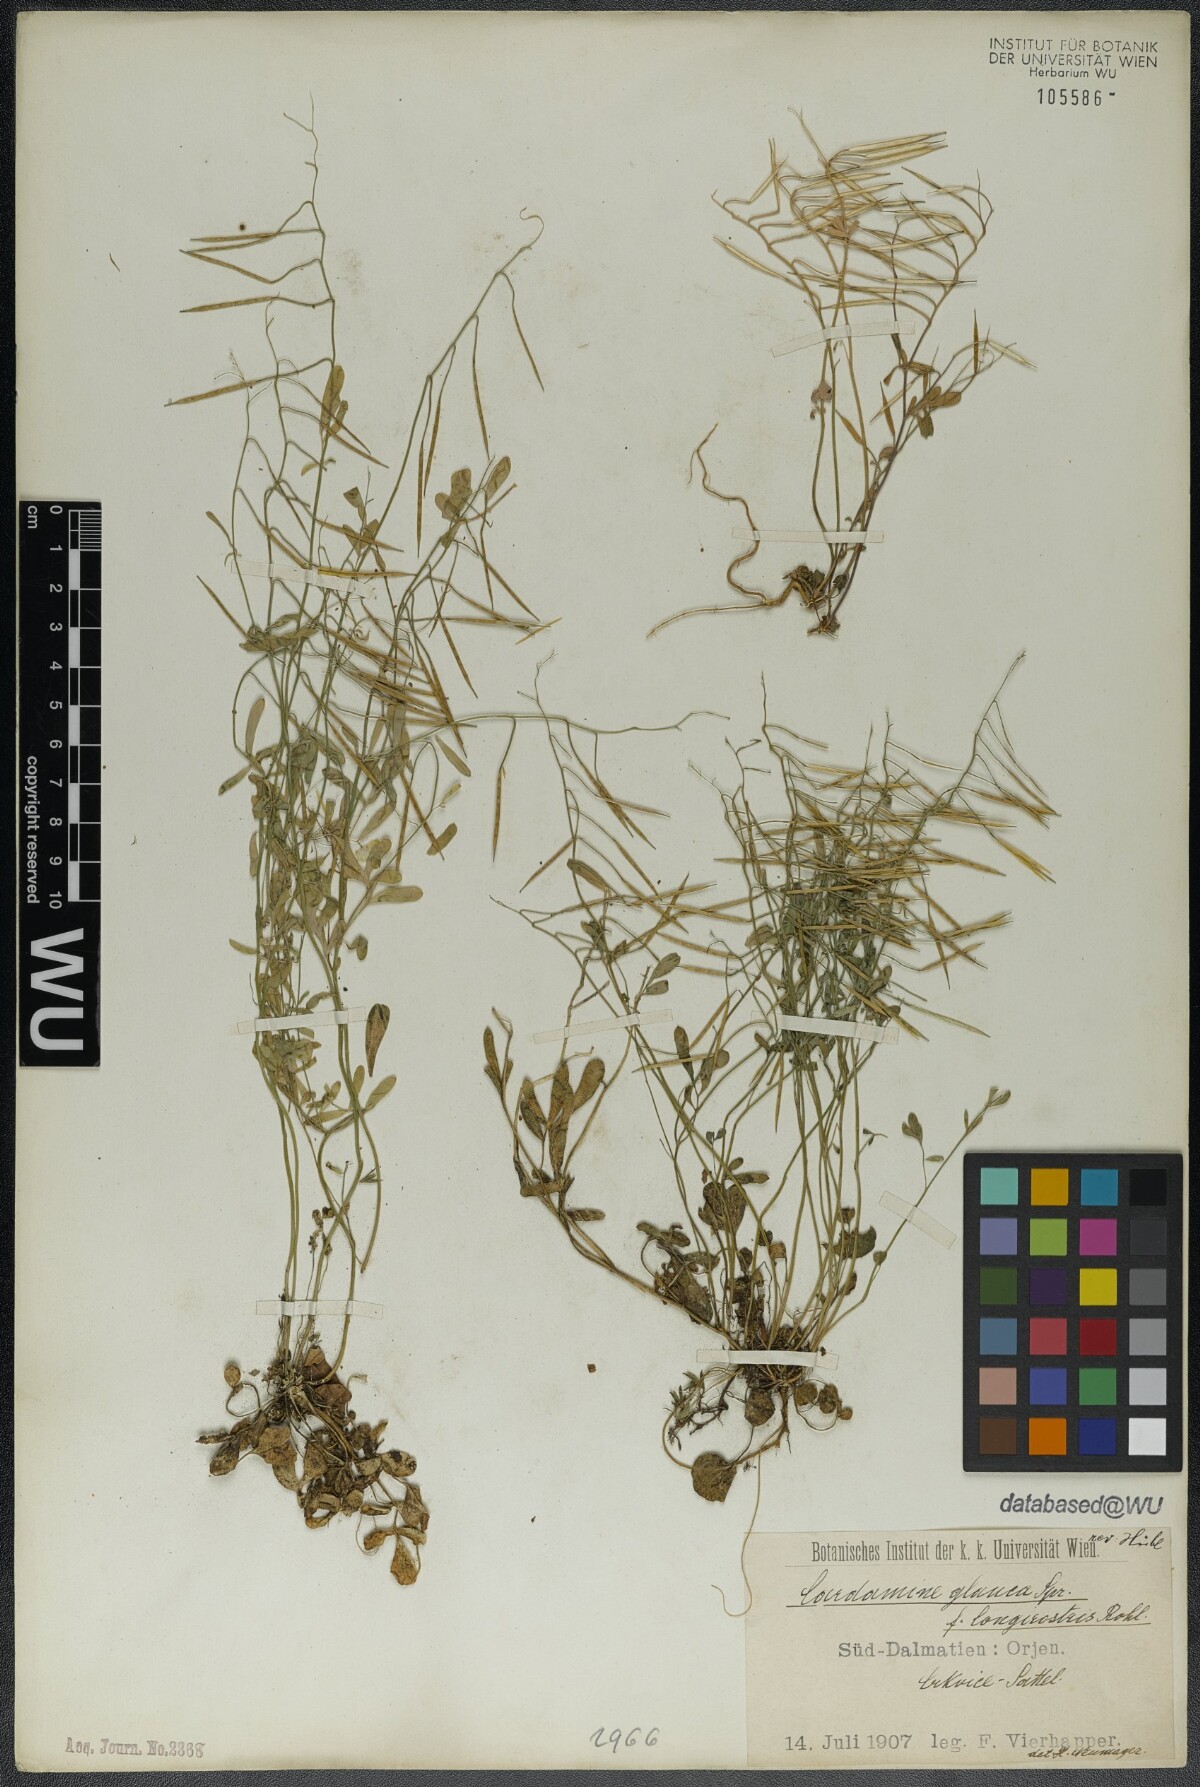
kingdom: Plantae
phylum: Tracheophyta
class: Magnoliopsida
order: Brassicales
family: Brassicaceae
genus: Cardamine
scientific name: Cardamine glauca
